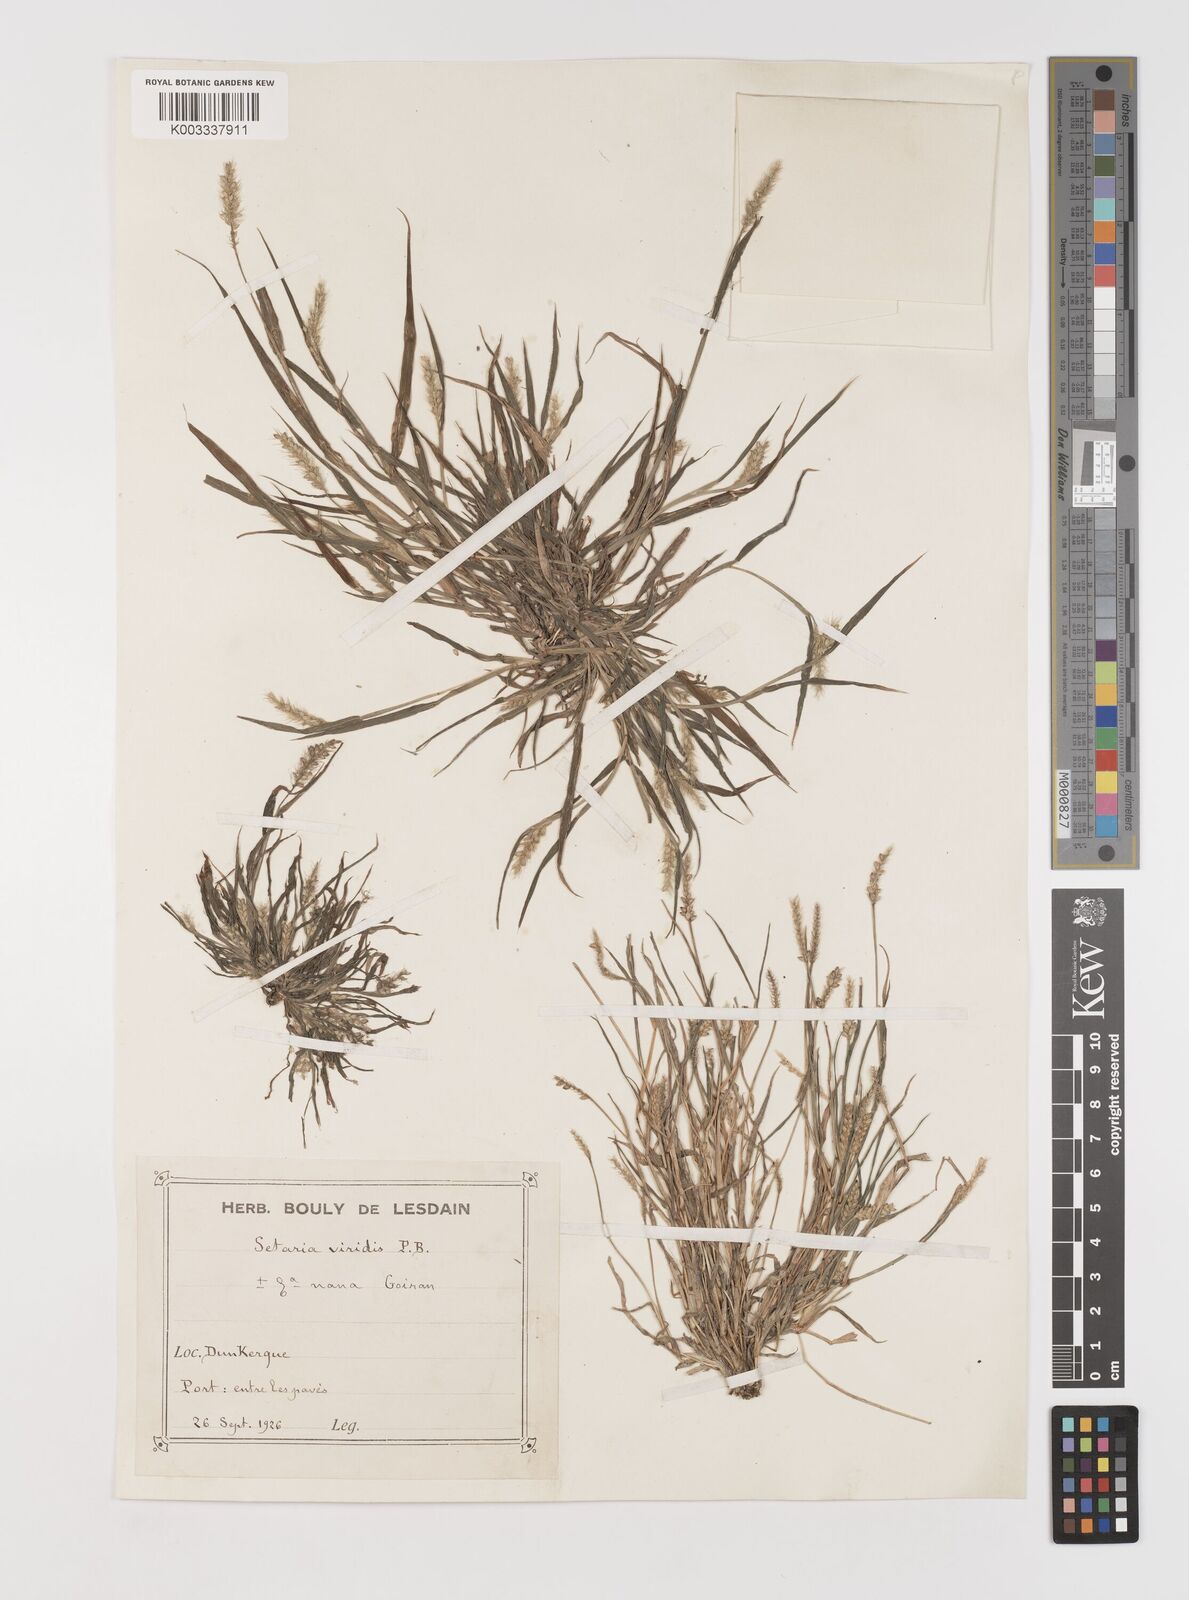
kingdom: Plantae
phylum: Tracheophyta
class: Liliopsida
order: Poales
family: Poaceae
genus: Setaria
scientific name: Setaria viridis
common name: Green bristlegrass
